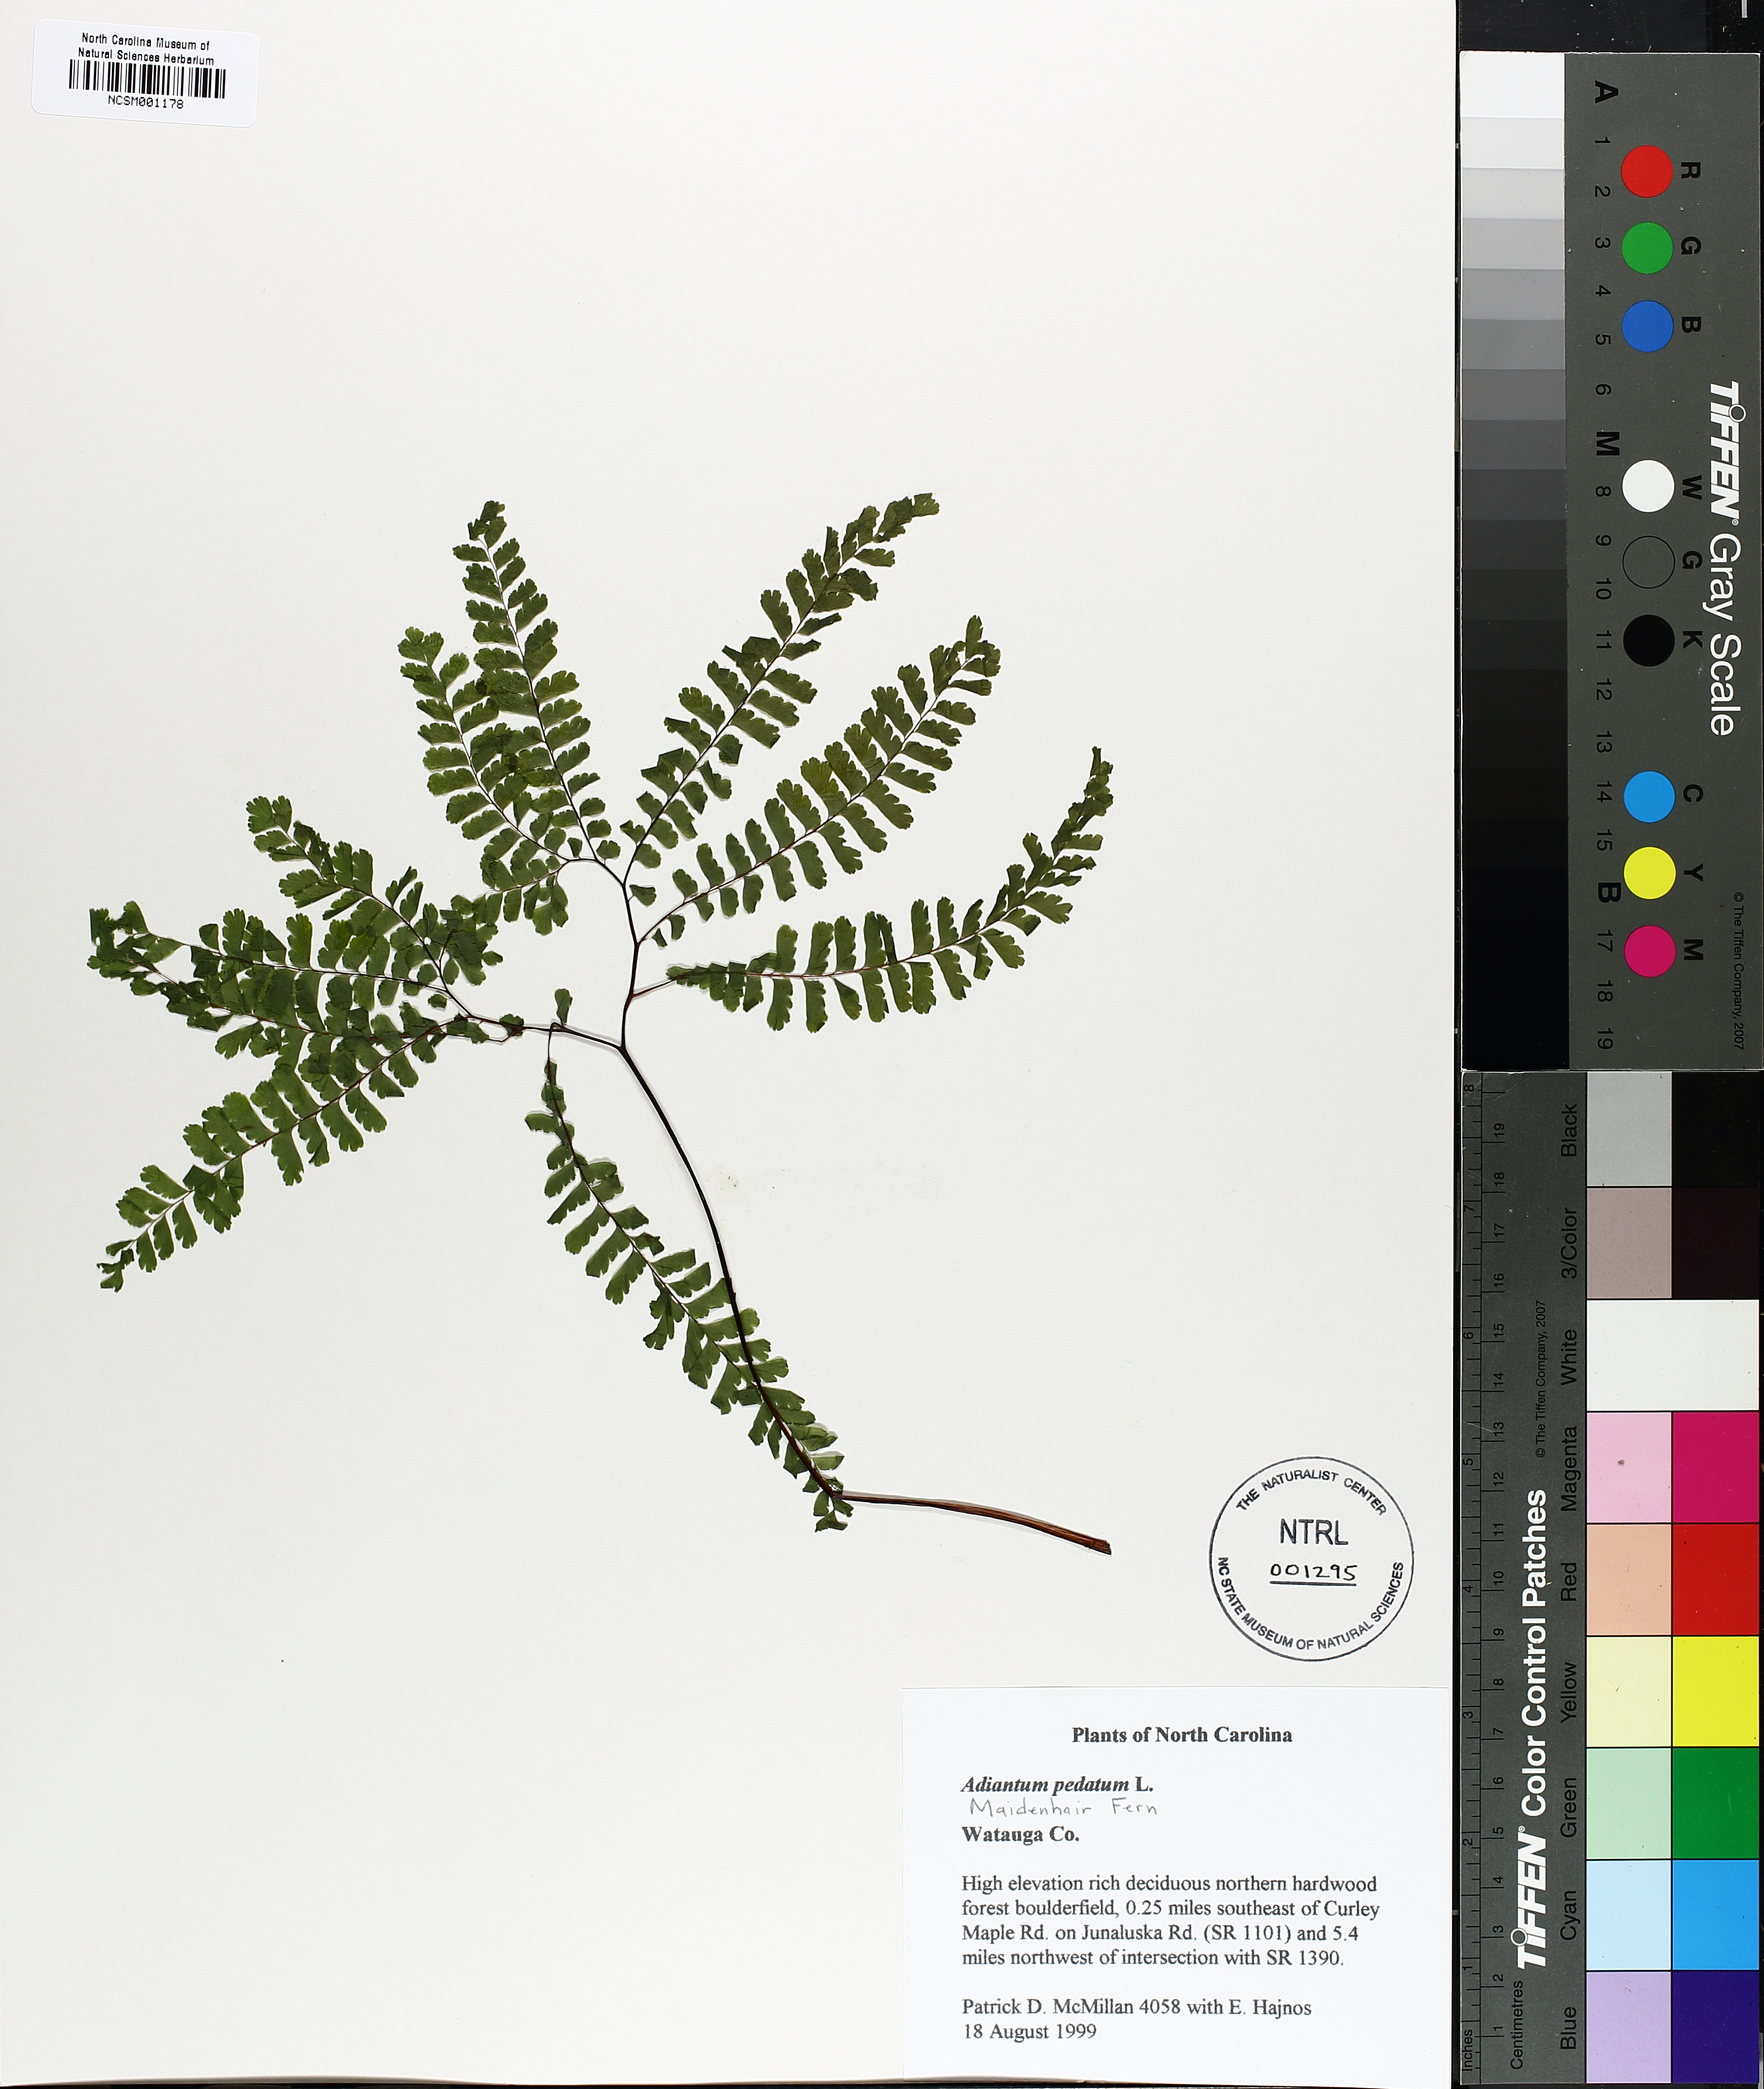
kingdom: Plantae
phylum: Tracheophyta
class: Polypodiopsida
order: Polypodiales
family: Pteridaceae
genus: Adiantum
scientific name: Adiantum pedatum
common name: Five-finger fern
